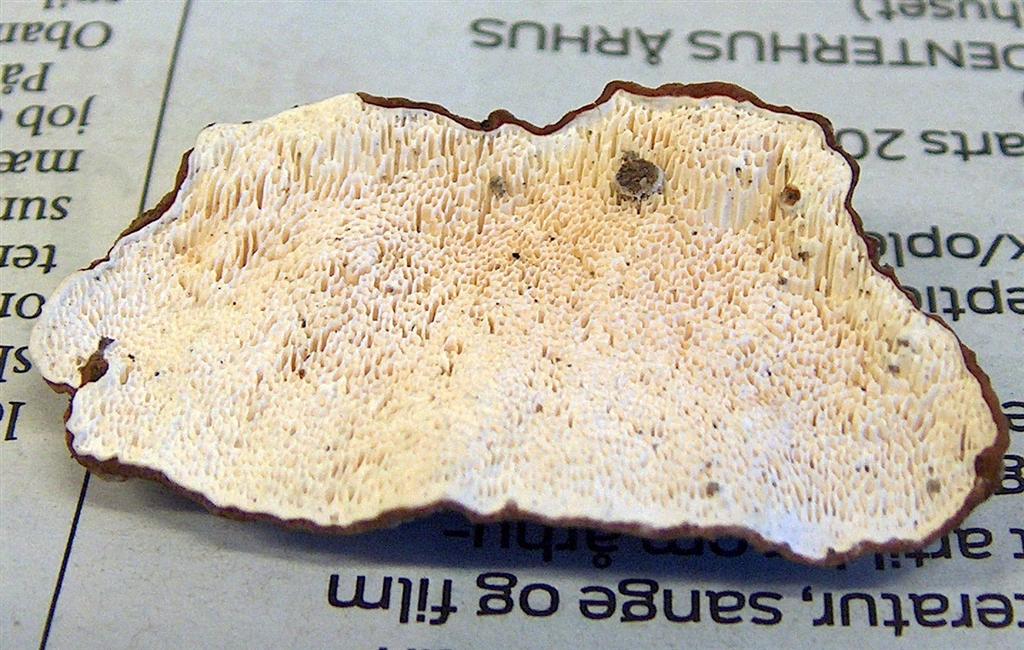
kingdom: Fungi
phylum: Basidiomycota
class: Agaricomycetes
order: Russulales
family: Bondarzewiaceae
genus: Heterobasidion
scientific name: Heterobasidion annosum
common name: almindelig rodfordærver
